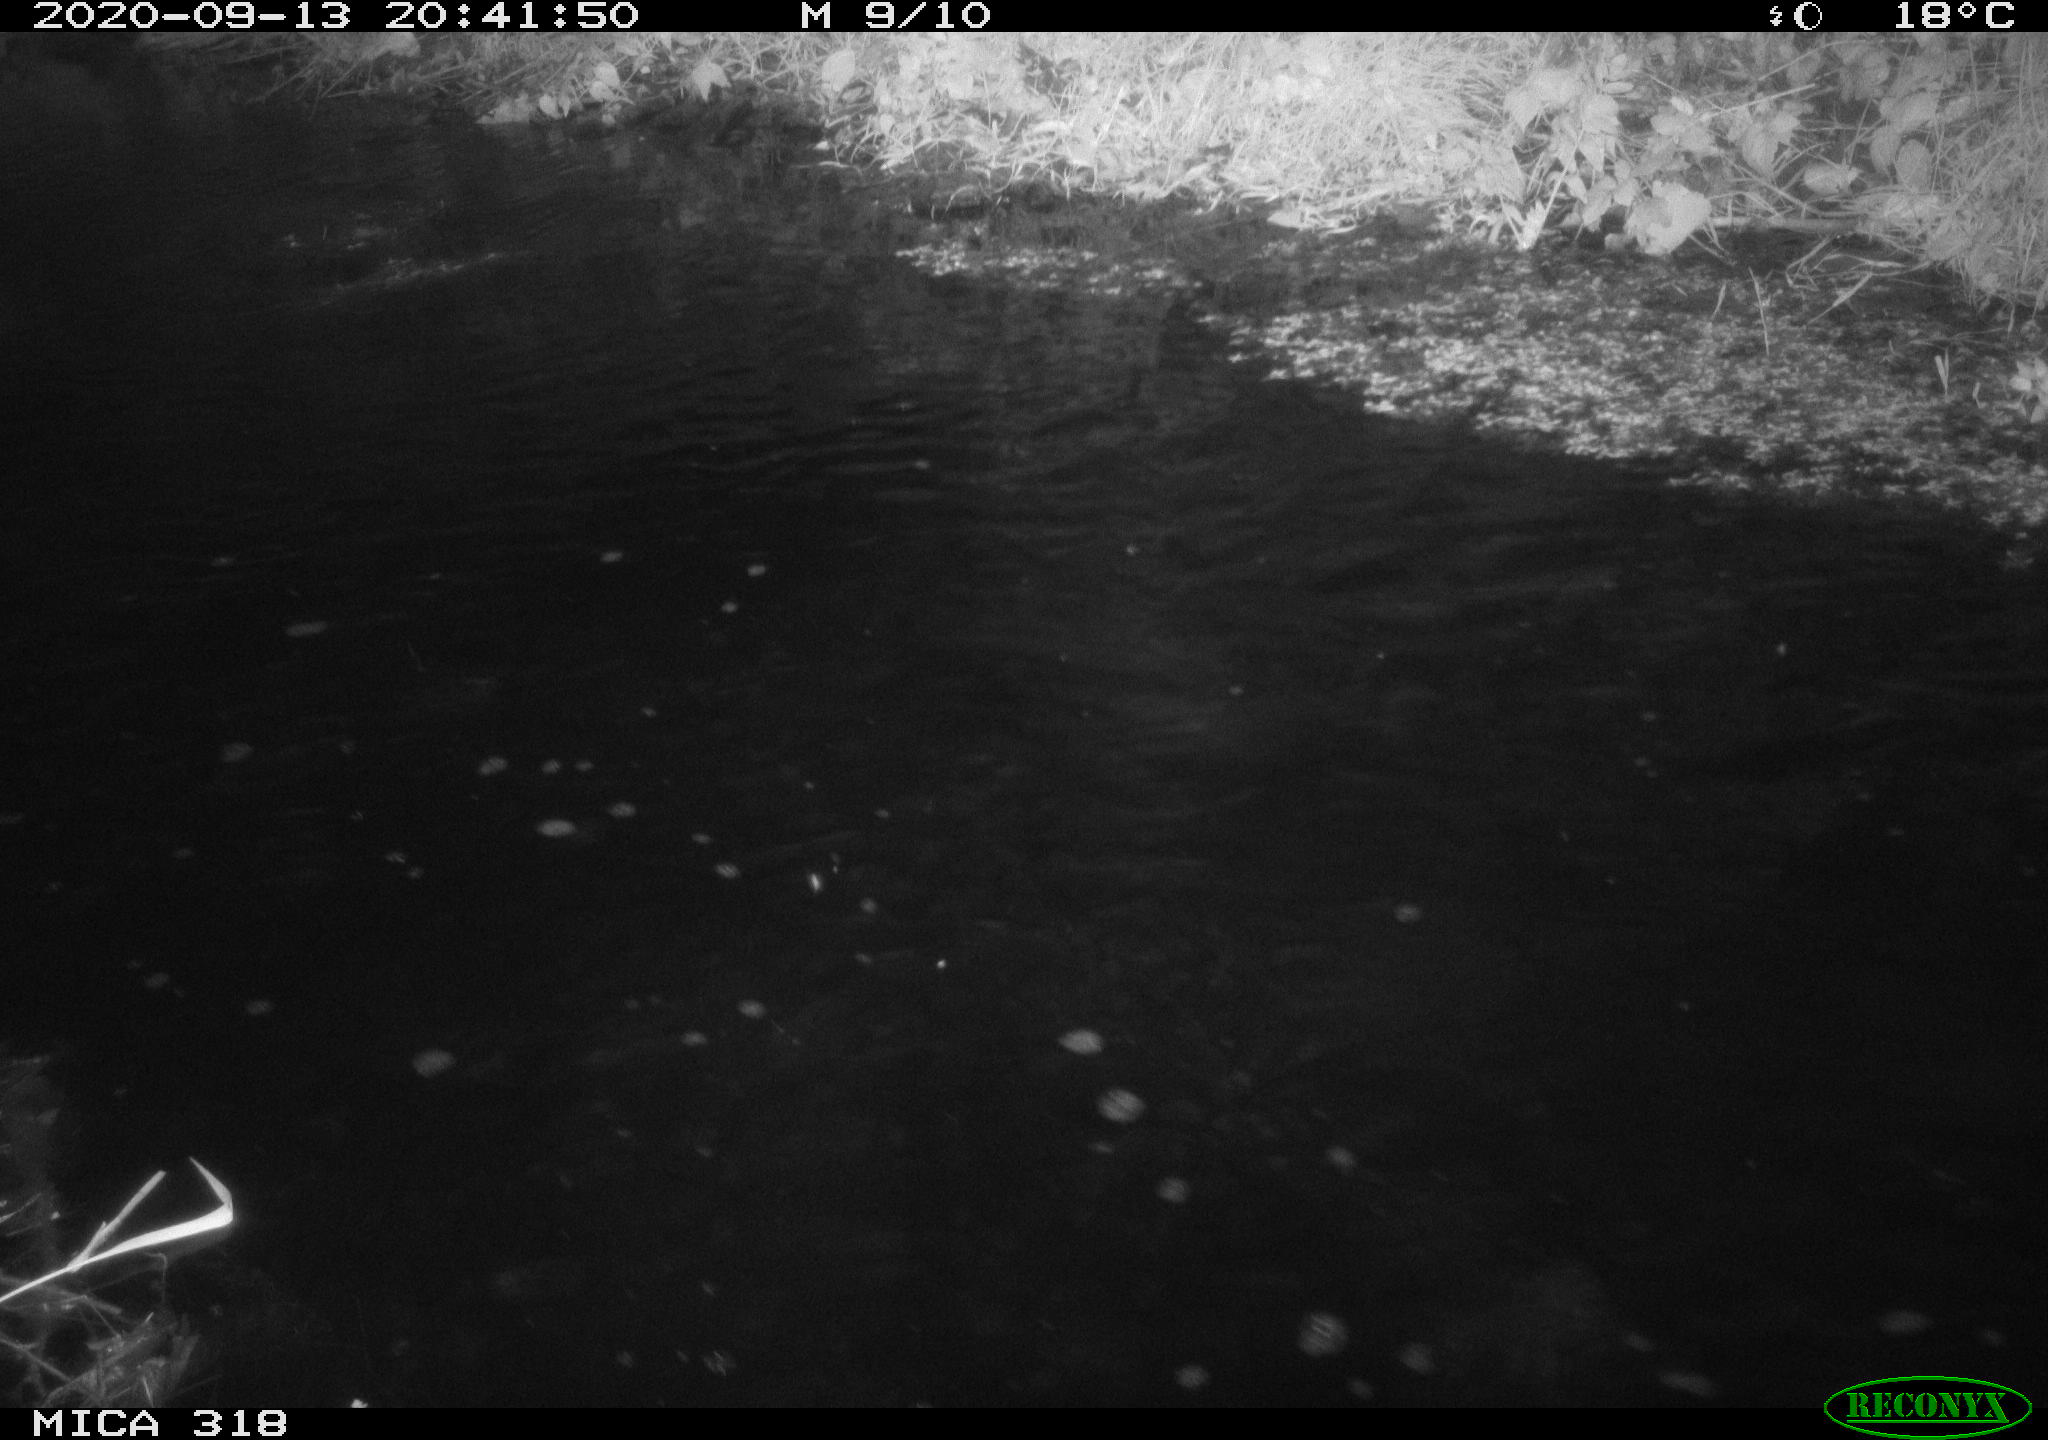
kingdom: Animalia
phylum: Chordata
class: Aves
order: Anseriformes
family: Anatidae
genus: Anas
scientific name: Anas platyrhynchos
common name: Mallard
